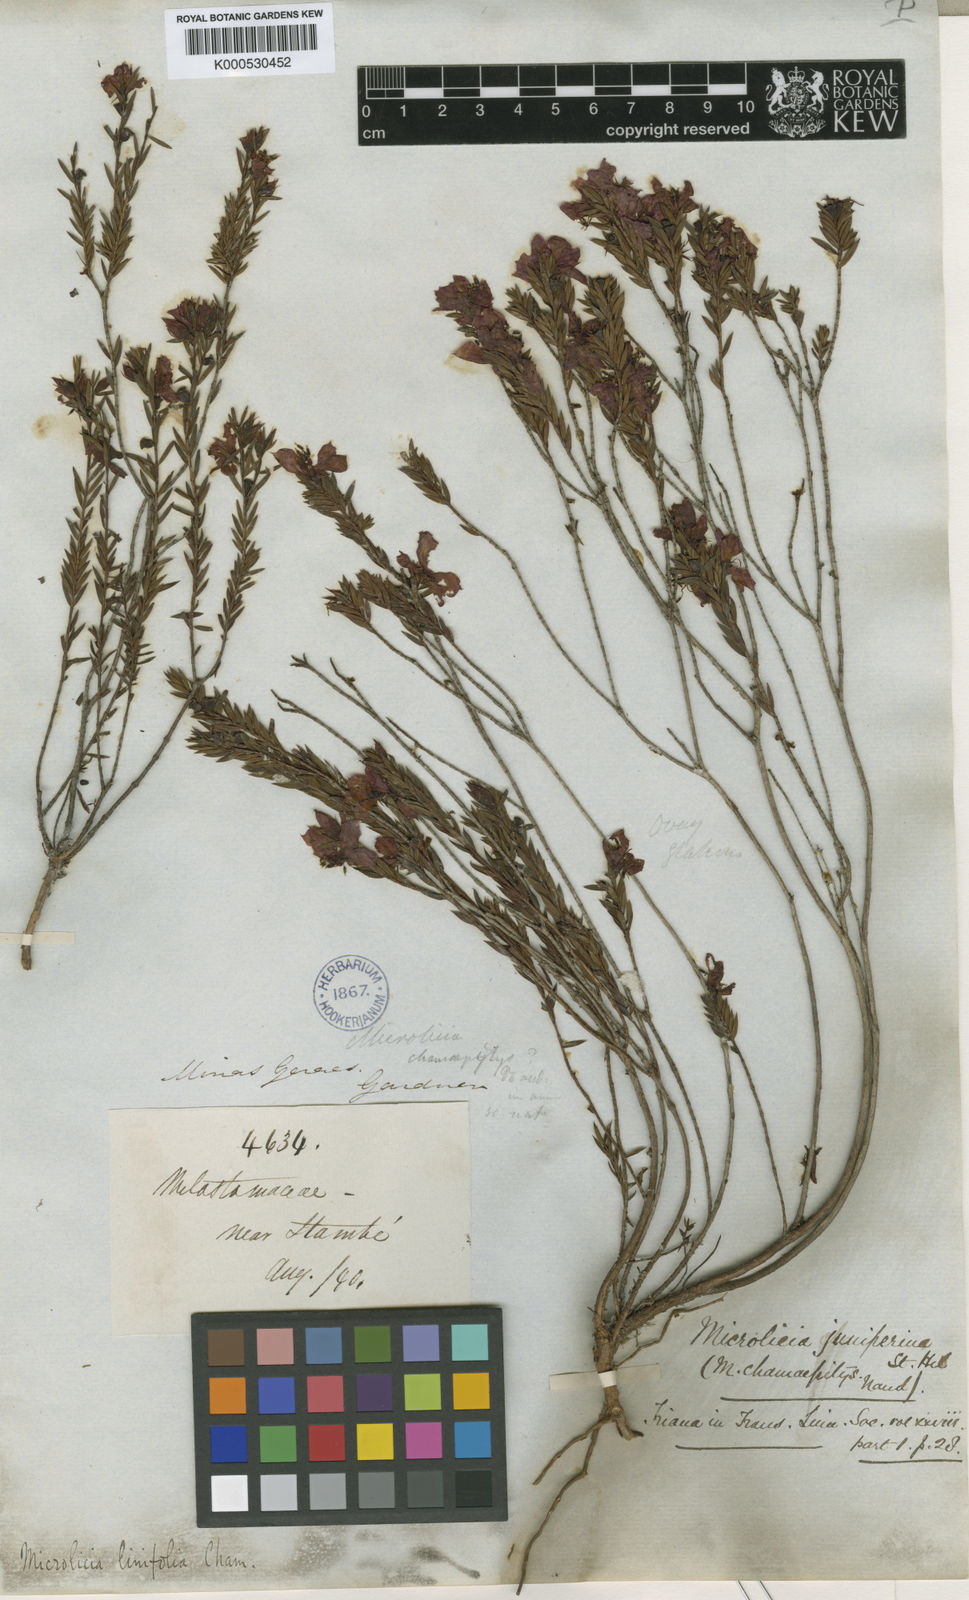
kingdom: Plantae
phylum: Tracheophyta
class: Magnoliopsida
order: Myrtales
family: Melastomataceae
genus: Microlicia
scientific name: Microlicia linifolia
